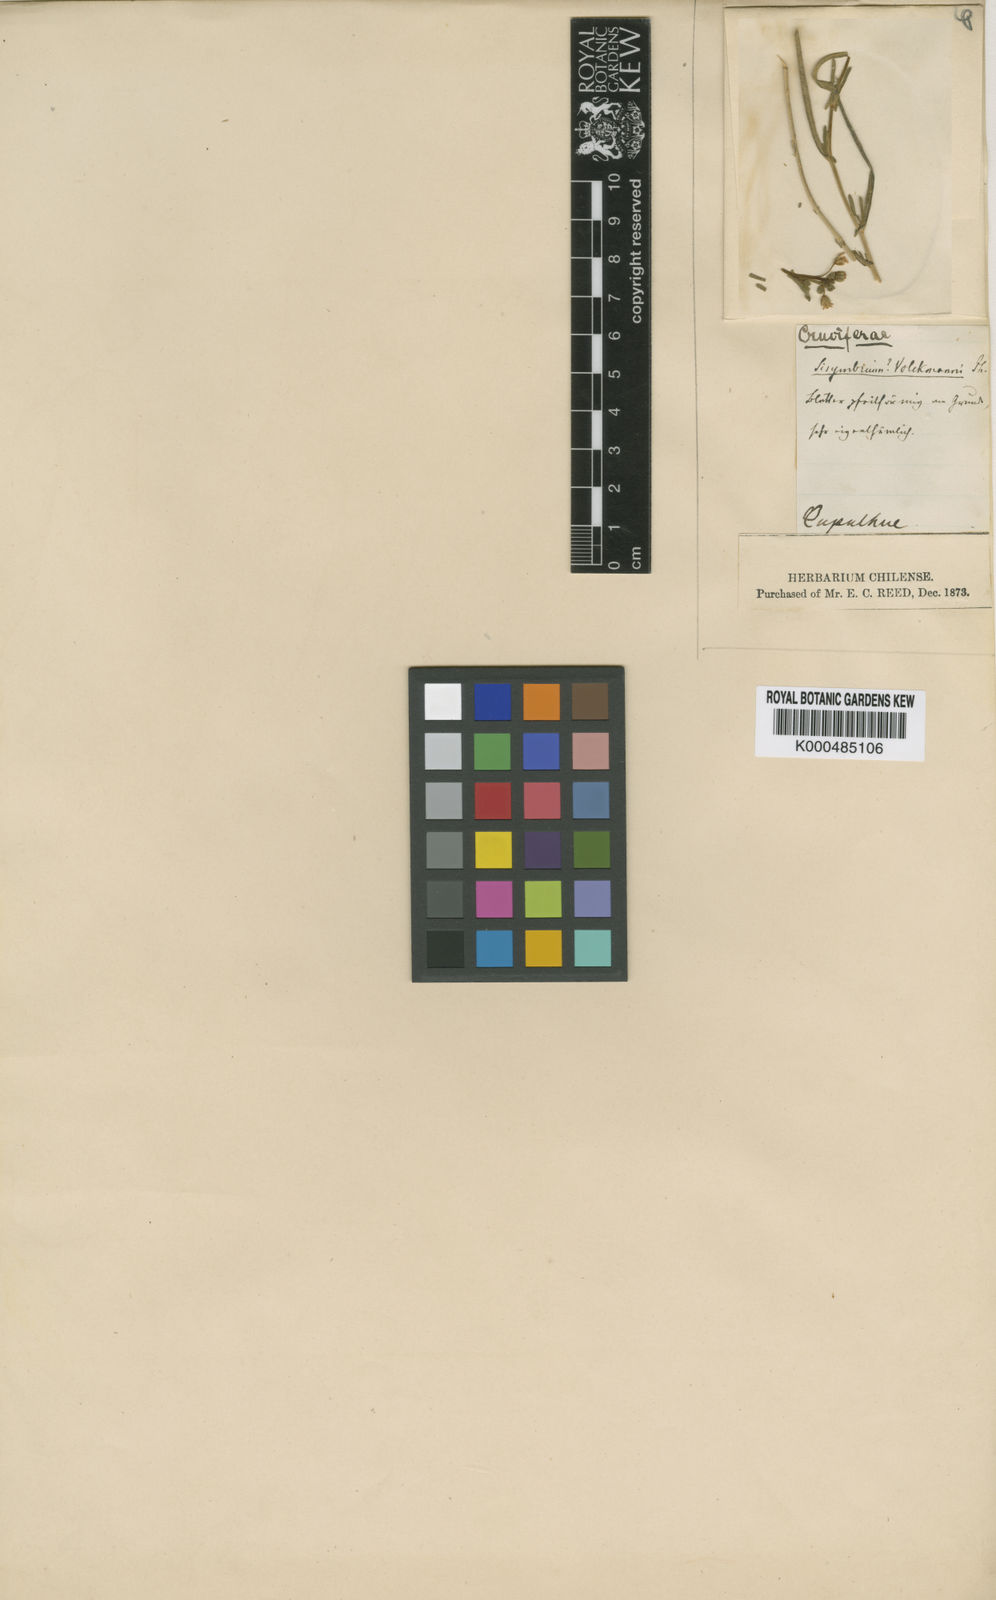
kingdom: Plantae
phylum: Tracheophyta
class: Magnoliopsida
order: Brassicales
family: Brassicaceae
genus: Mostacillastrum
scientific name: Mostacillastrum volckmannii
